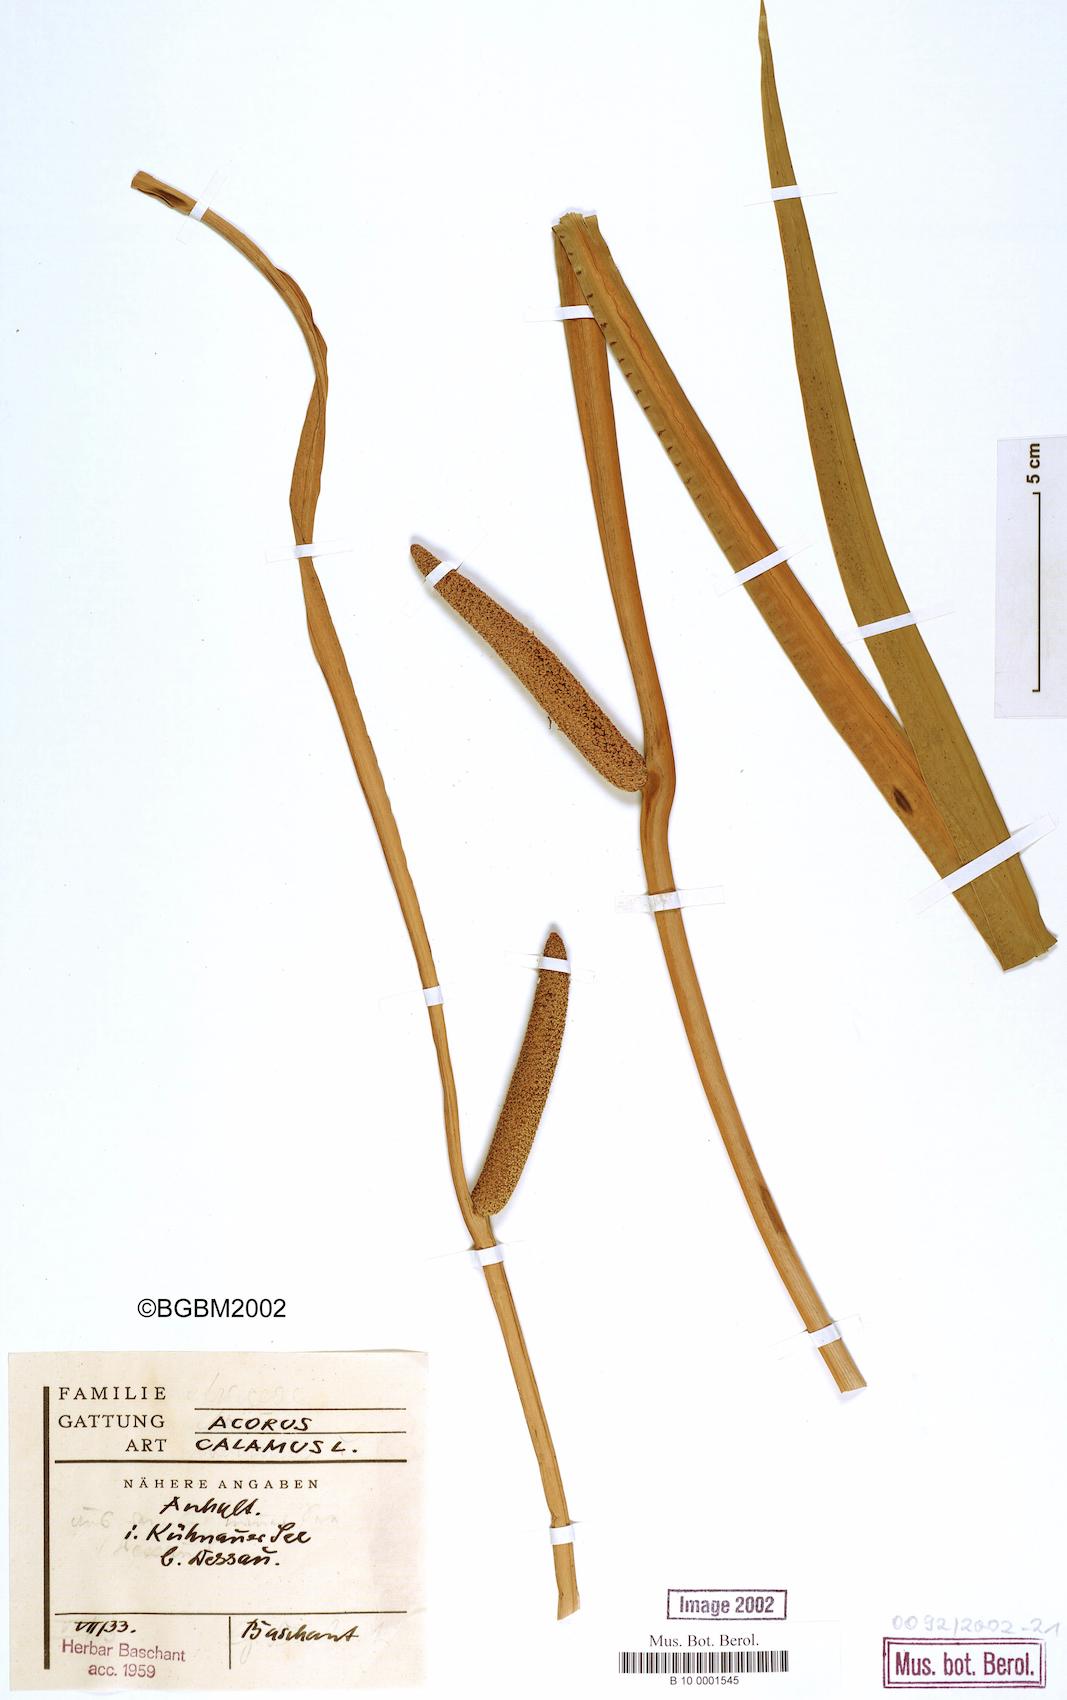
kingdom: Plantae
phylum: Tracheophyta
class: Liliopsida
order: Acorales
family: Acoraceae
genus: Acorus
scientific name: Acorus calamus
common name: Sweet-flag
